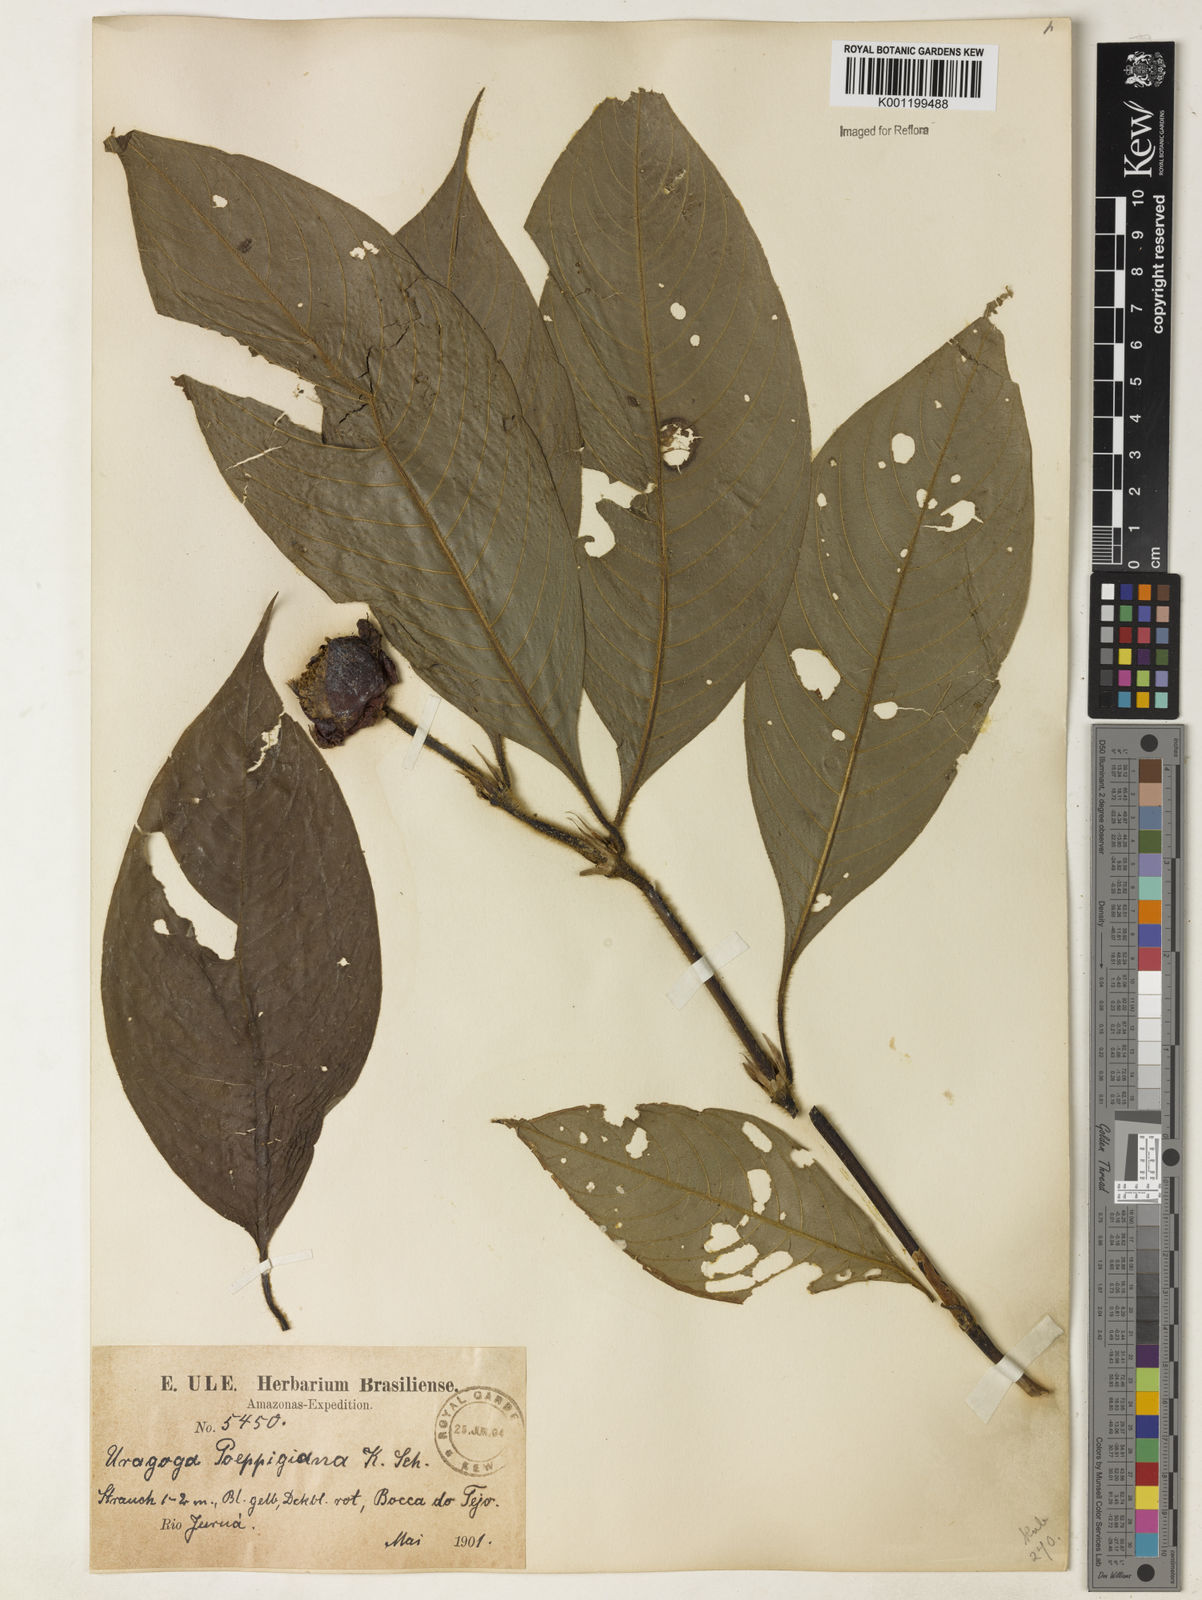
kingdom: Plantae
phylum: Tracheophyta
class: Magnoliopsida
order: Gentianales
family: Rubiaceae
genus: Psychotria
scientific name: Psychotria
